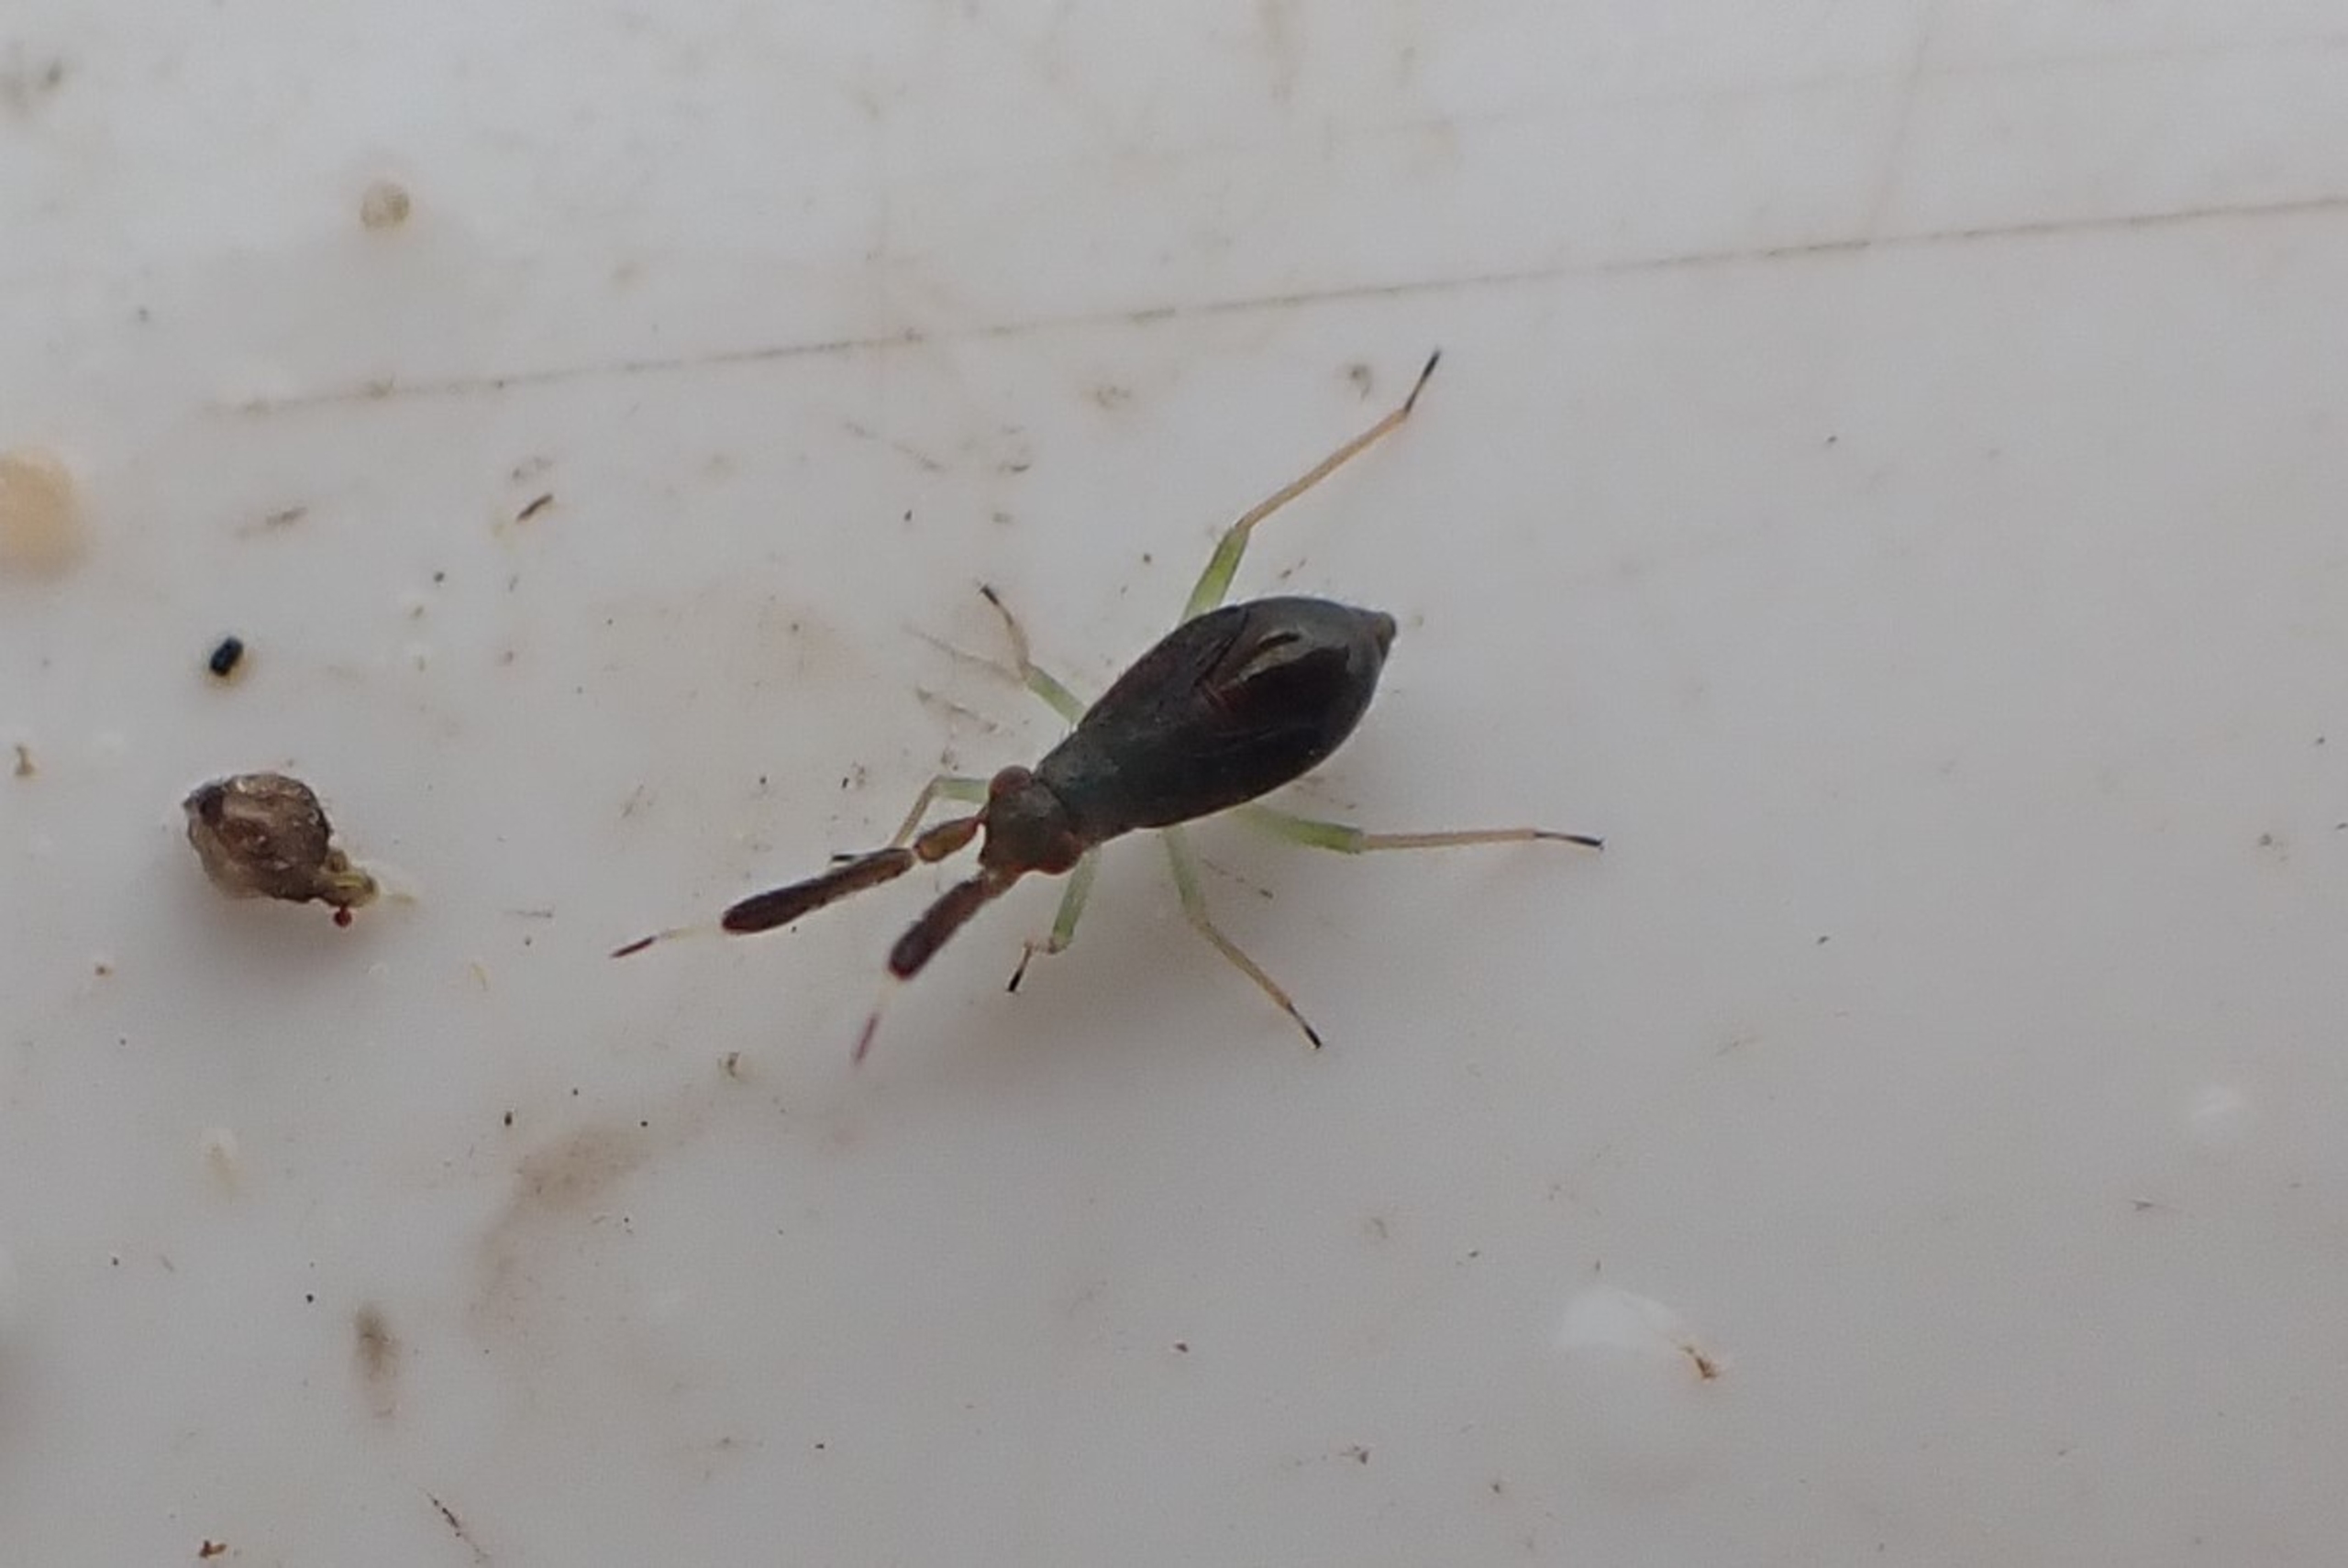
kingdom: Animalia
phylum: Arthropoda
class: Insecta
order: Hemiptera
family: Miridae
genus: Heterotoma
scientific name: Heterotoma planicornis
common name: Køllehornet blomstertæge
